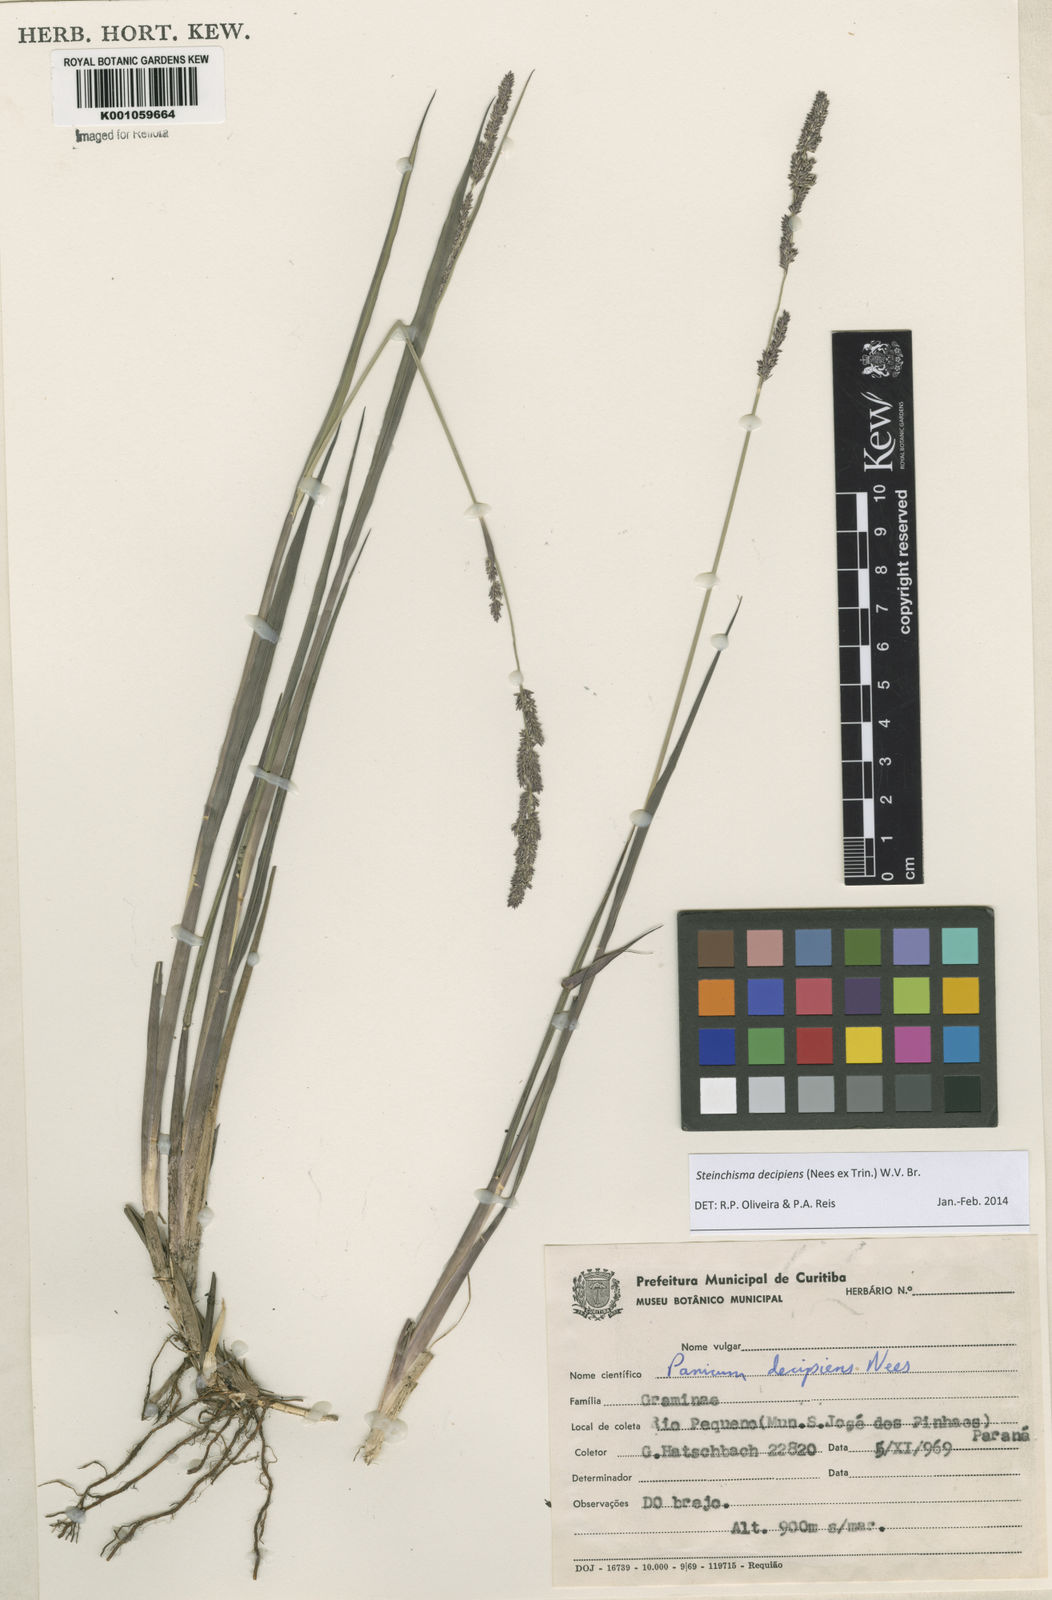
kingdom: Plantae
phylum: Tracheophyta
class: Liliopsida
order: Poales
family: Poaceae
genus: Steinchisma
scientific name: Steinchisma decipiens
